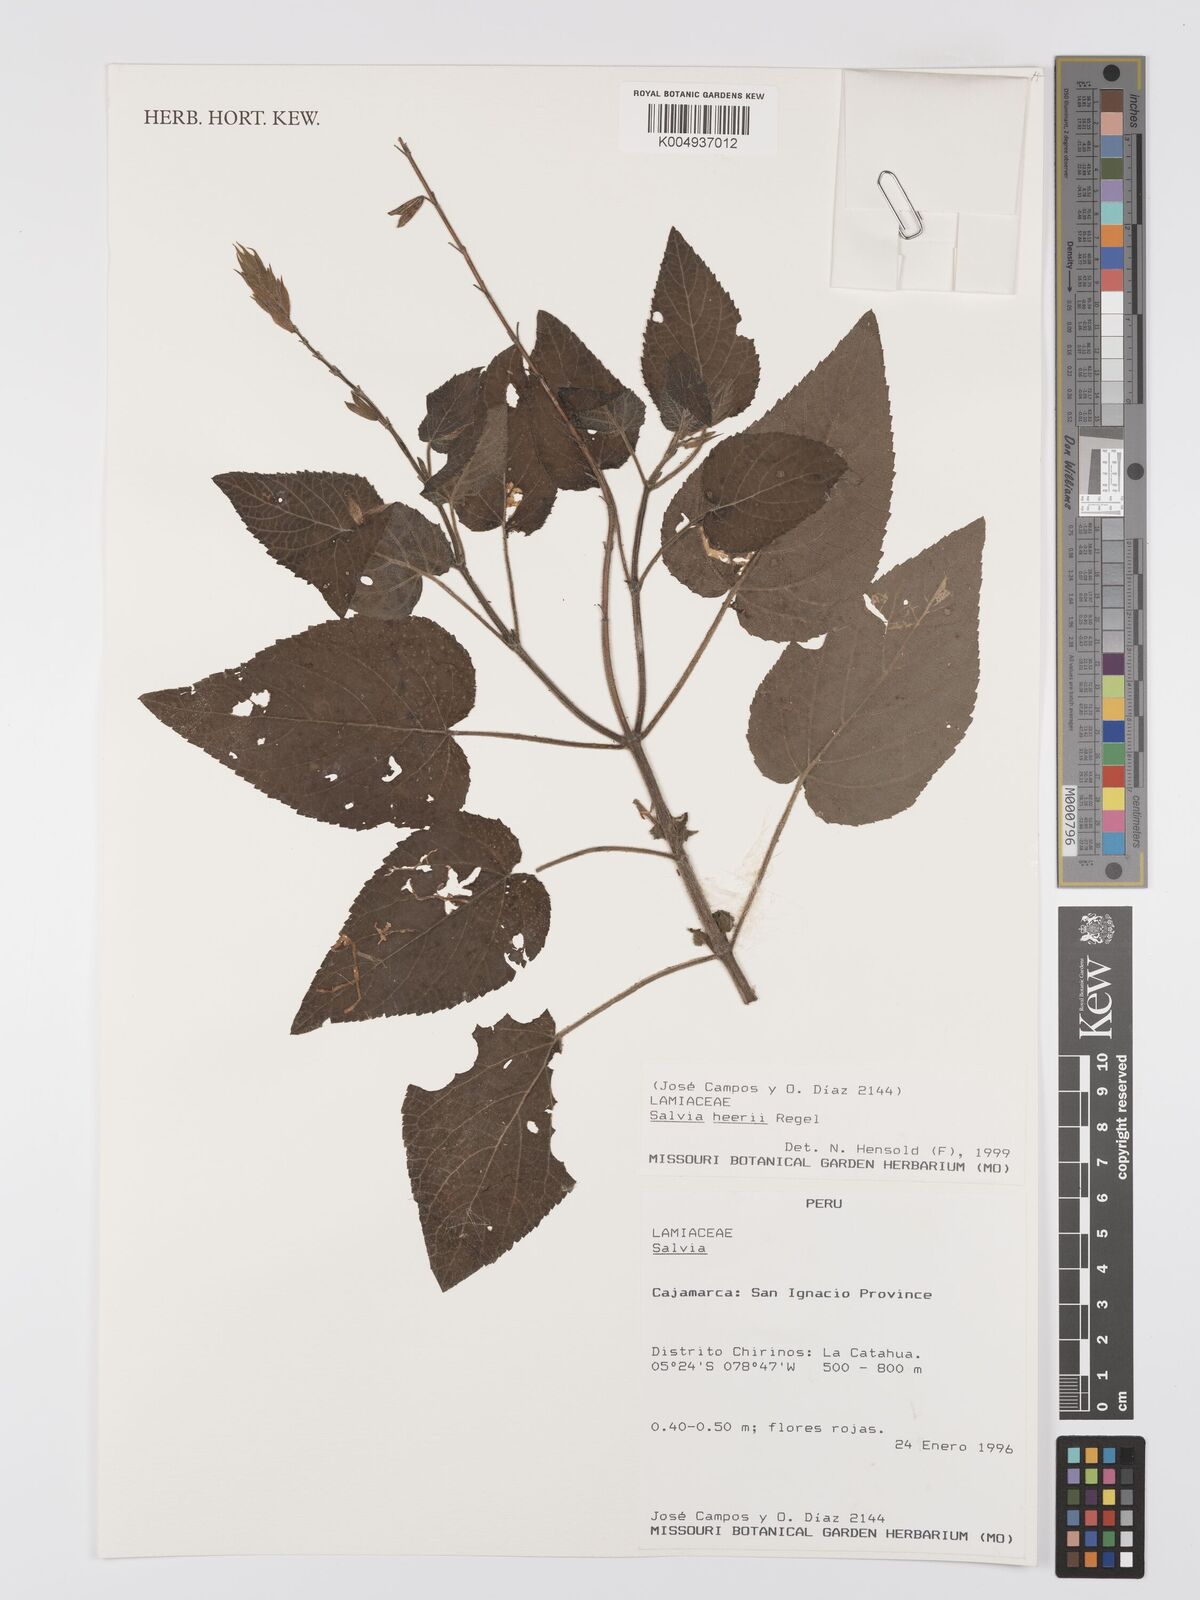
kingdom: Plantae
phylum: Tracheophyta
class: Magnoliopsida
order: Lamiales
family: Lamiaceae
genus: Salvia
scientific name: Salvia heerii
